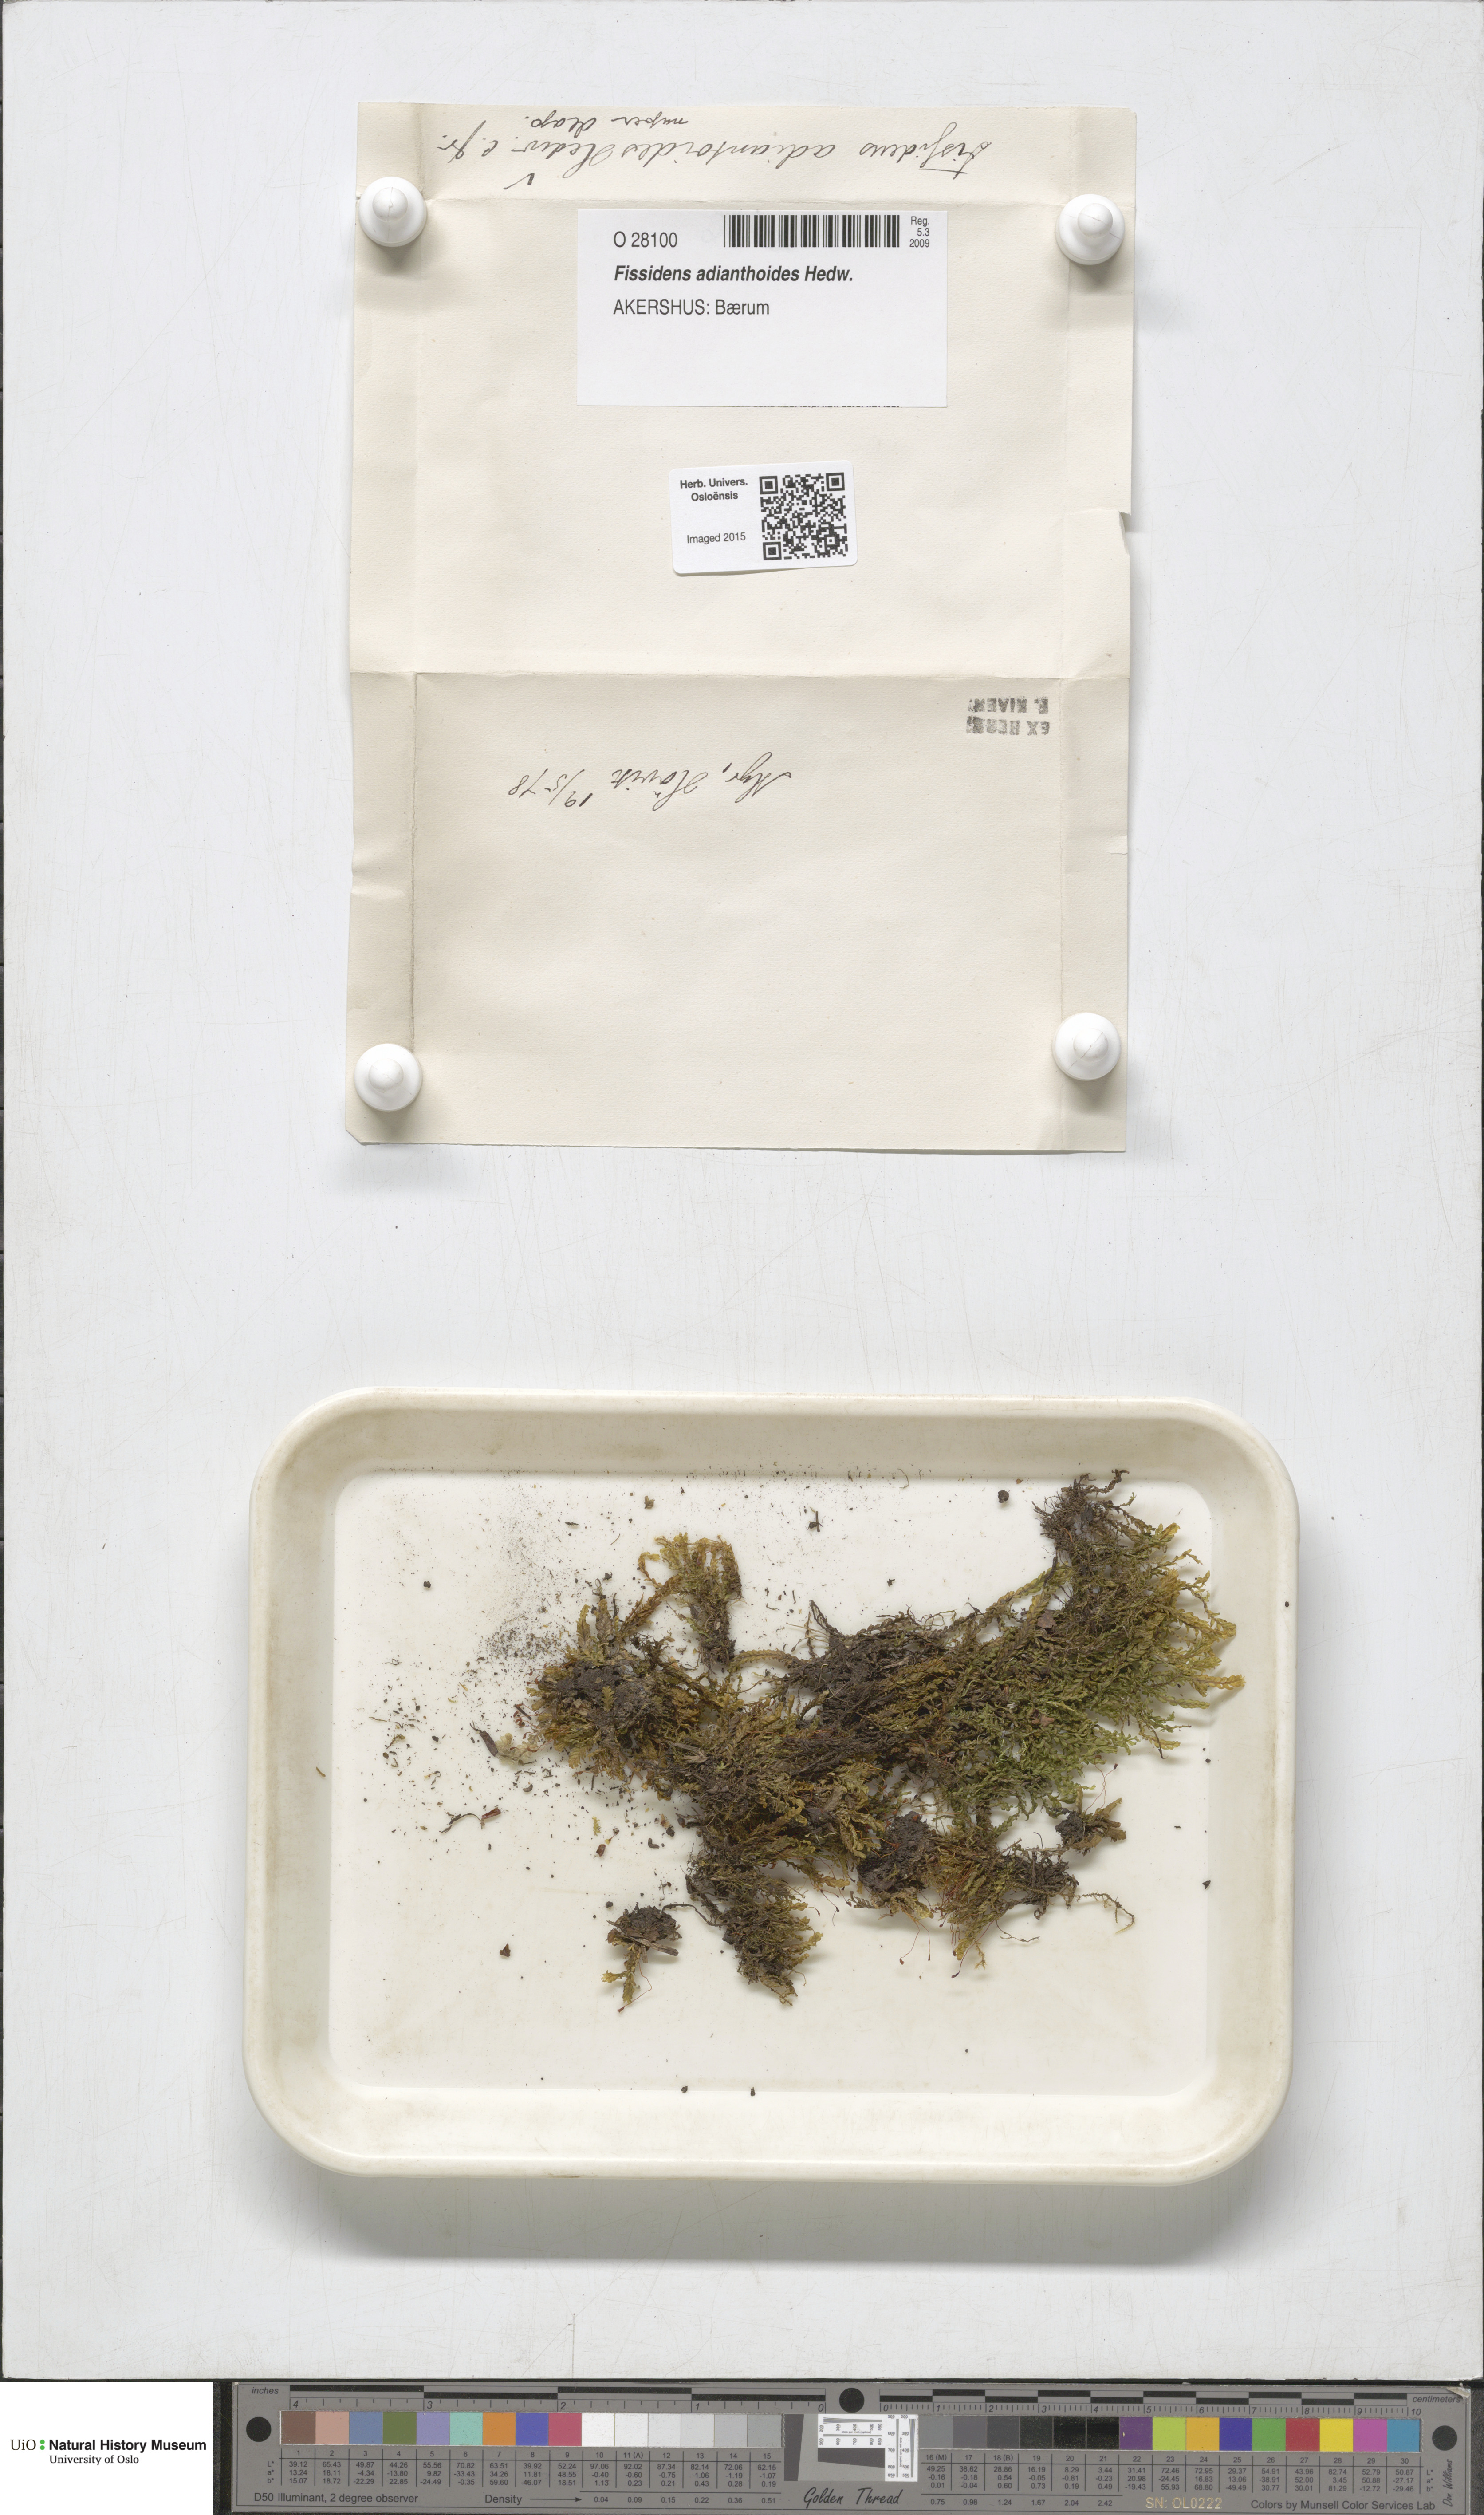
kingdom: Plantae
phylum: Bryophyta
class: Bryopsida
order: Dicranales
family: Fissidentaceae
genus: Fissidens
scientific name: Fissidens adianthoides
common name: Maidenhair pocket moss
